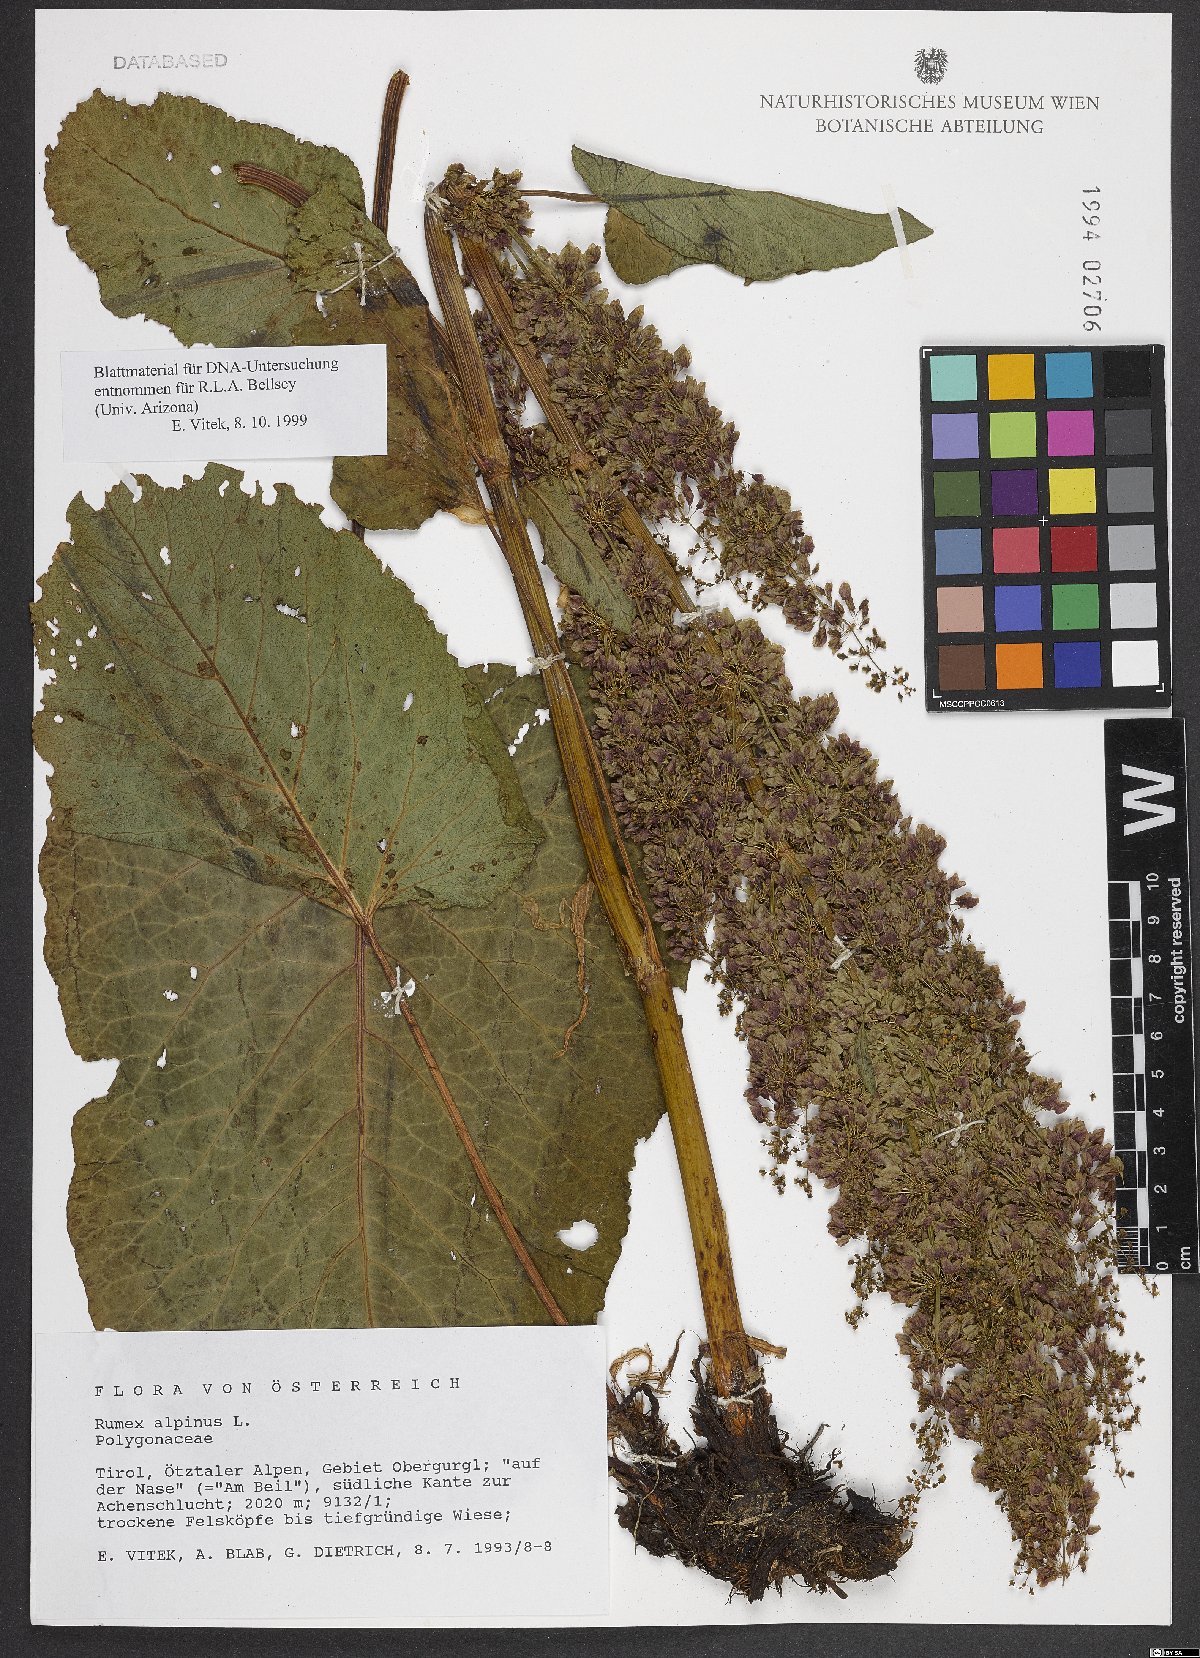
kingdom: Plantae
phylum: Tracheophyta
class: Magnoliopsida
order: Caryophyllales
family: Polygonaceae
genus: Rumex
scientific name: Rumex alpinus
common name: Alpine dock
